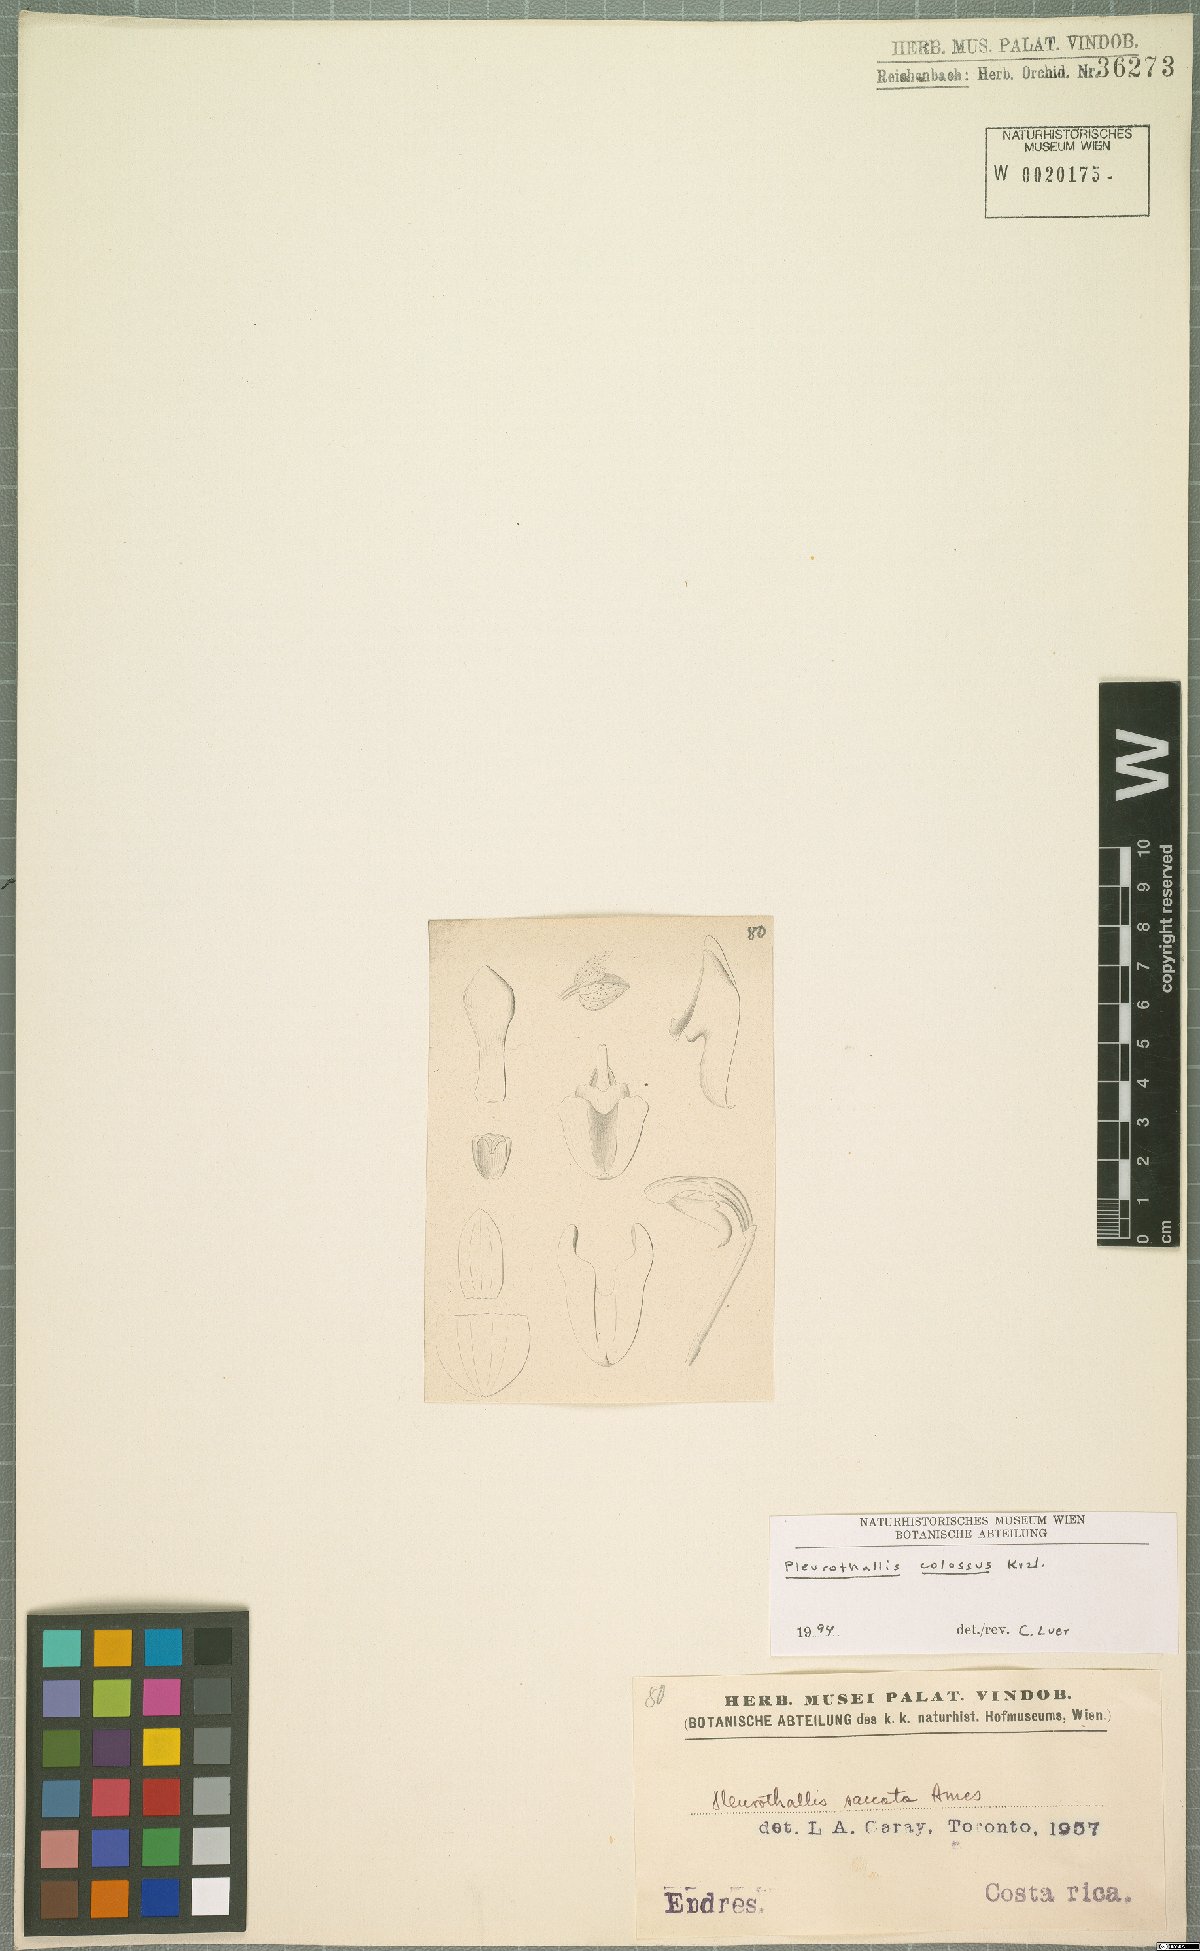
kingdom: Plantae
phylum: Tracheophyta
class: Liliopsida
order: Asparagales
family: Orchidaceae
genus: Pleurothallis
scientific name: Pleurothallis colossus
